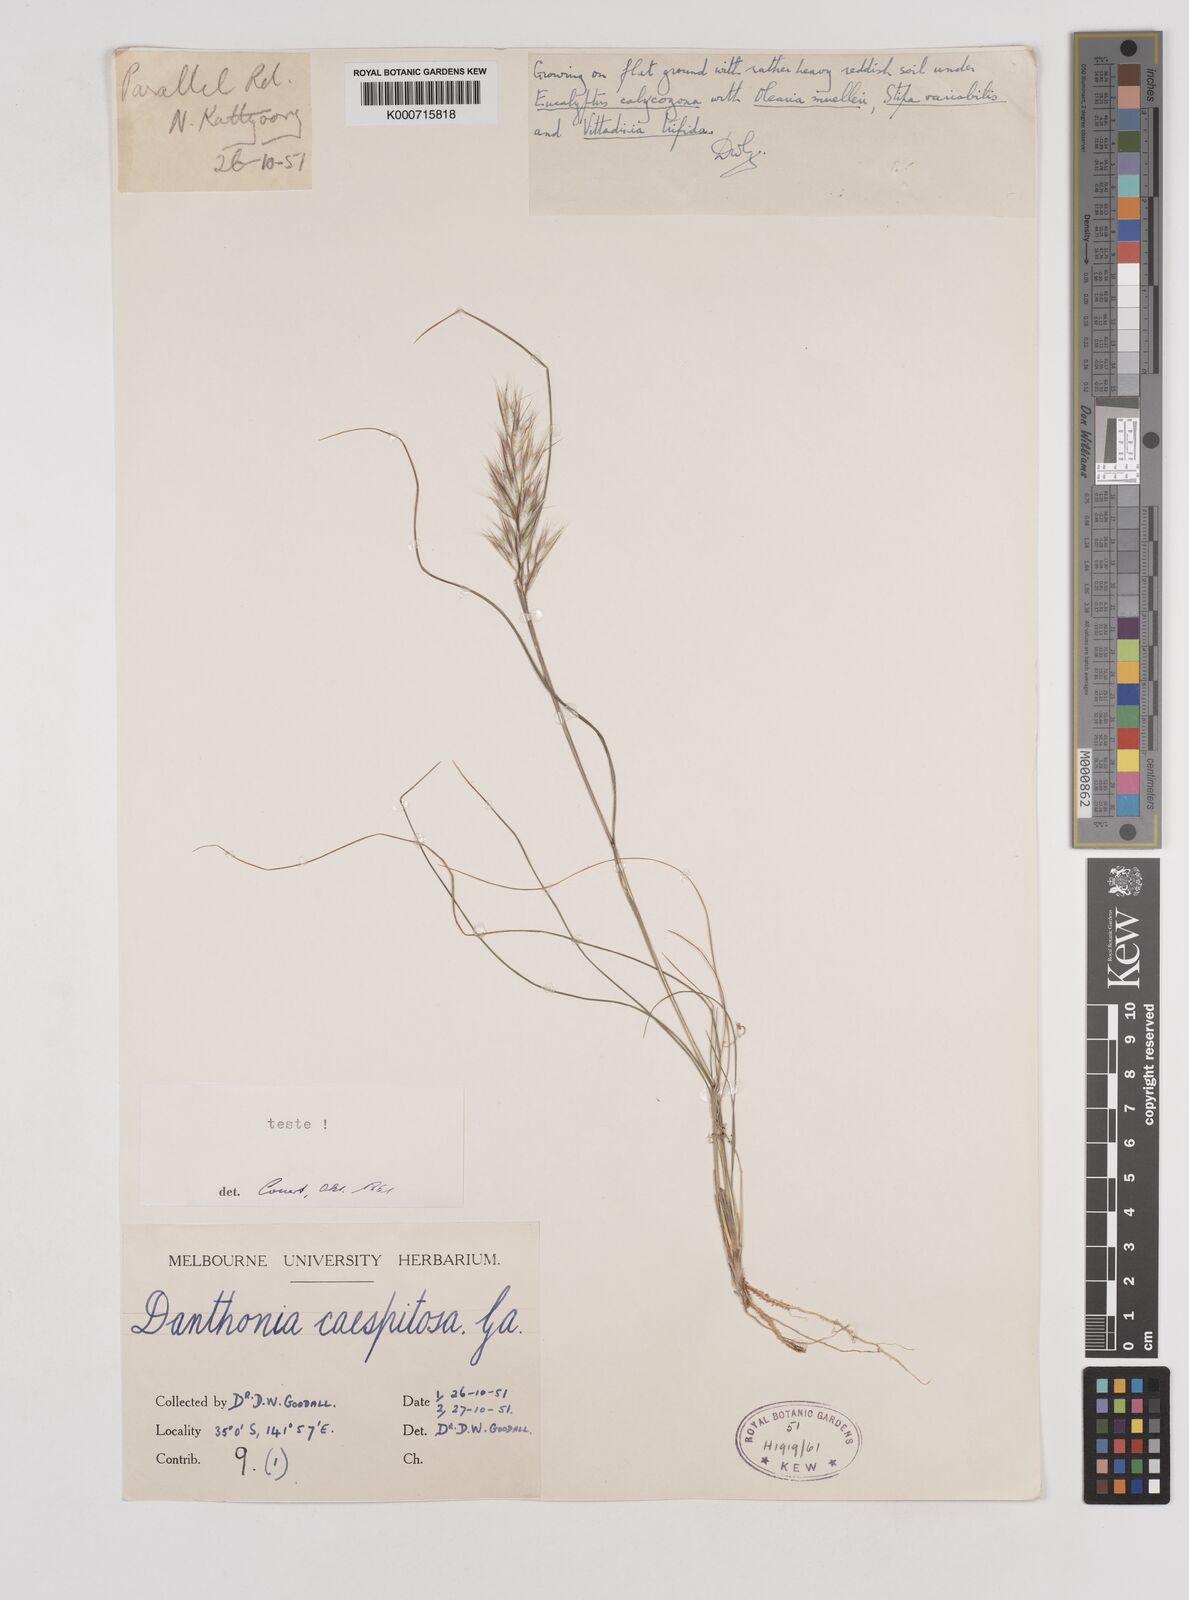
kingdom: Plantae
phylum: Tracheophyta
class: Liliopsida
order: Poales
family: Poaceae
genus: Rytidosperma
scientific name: Rytidosperma caespitosum
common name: Tufted wallaby grass
